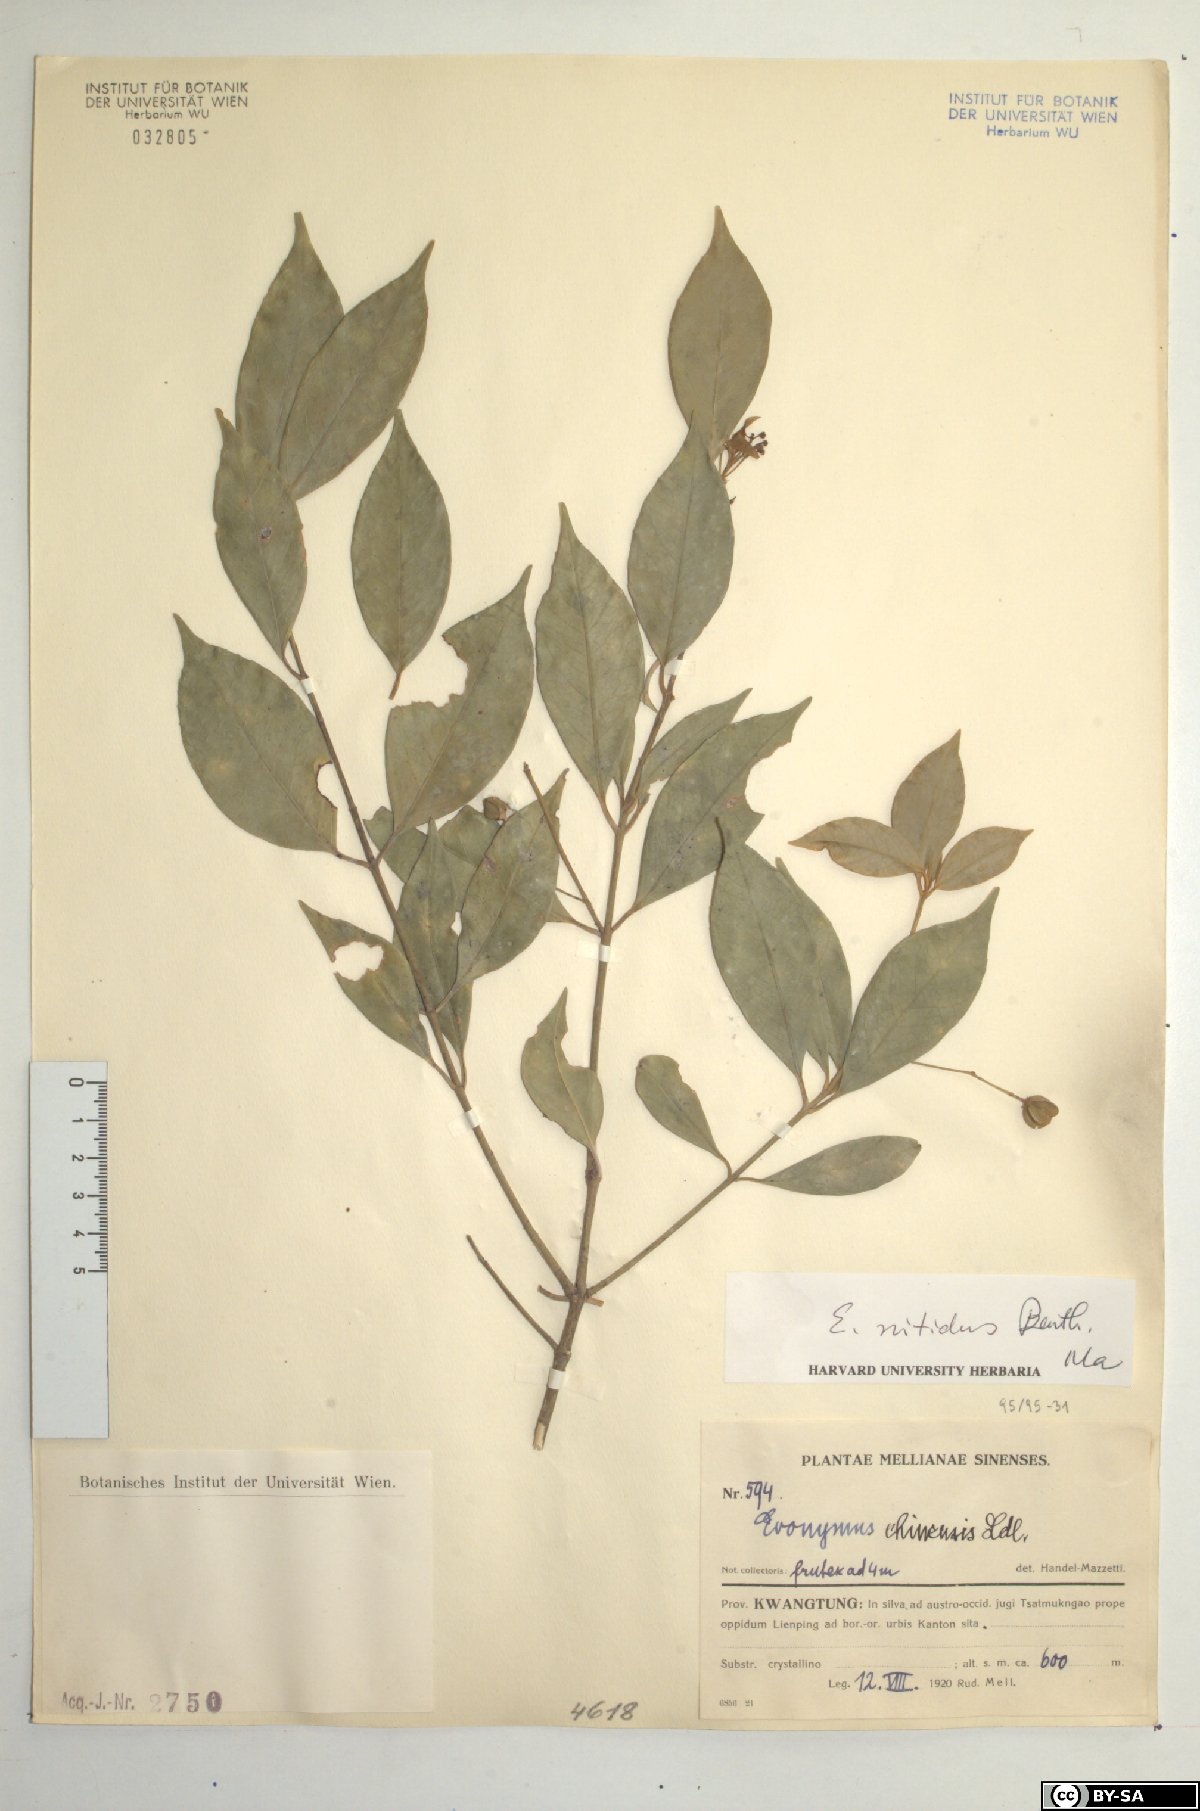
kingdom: Plantae
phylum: Tracheophyta
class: Magnoliopsida
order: Celastrales
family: Celastraceae
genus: Euonymus
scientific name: Euonymus nitidus
